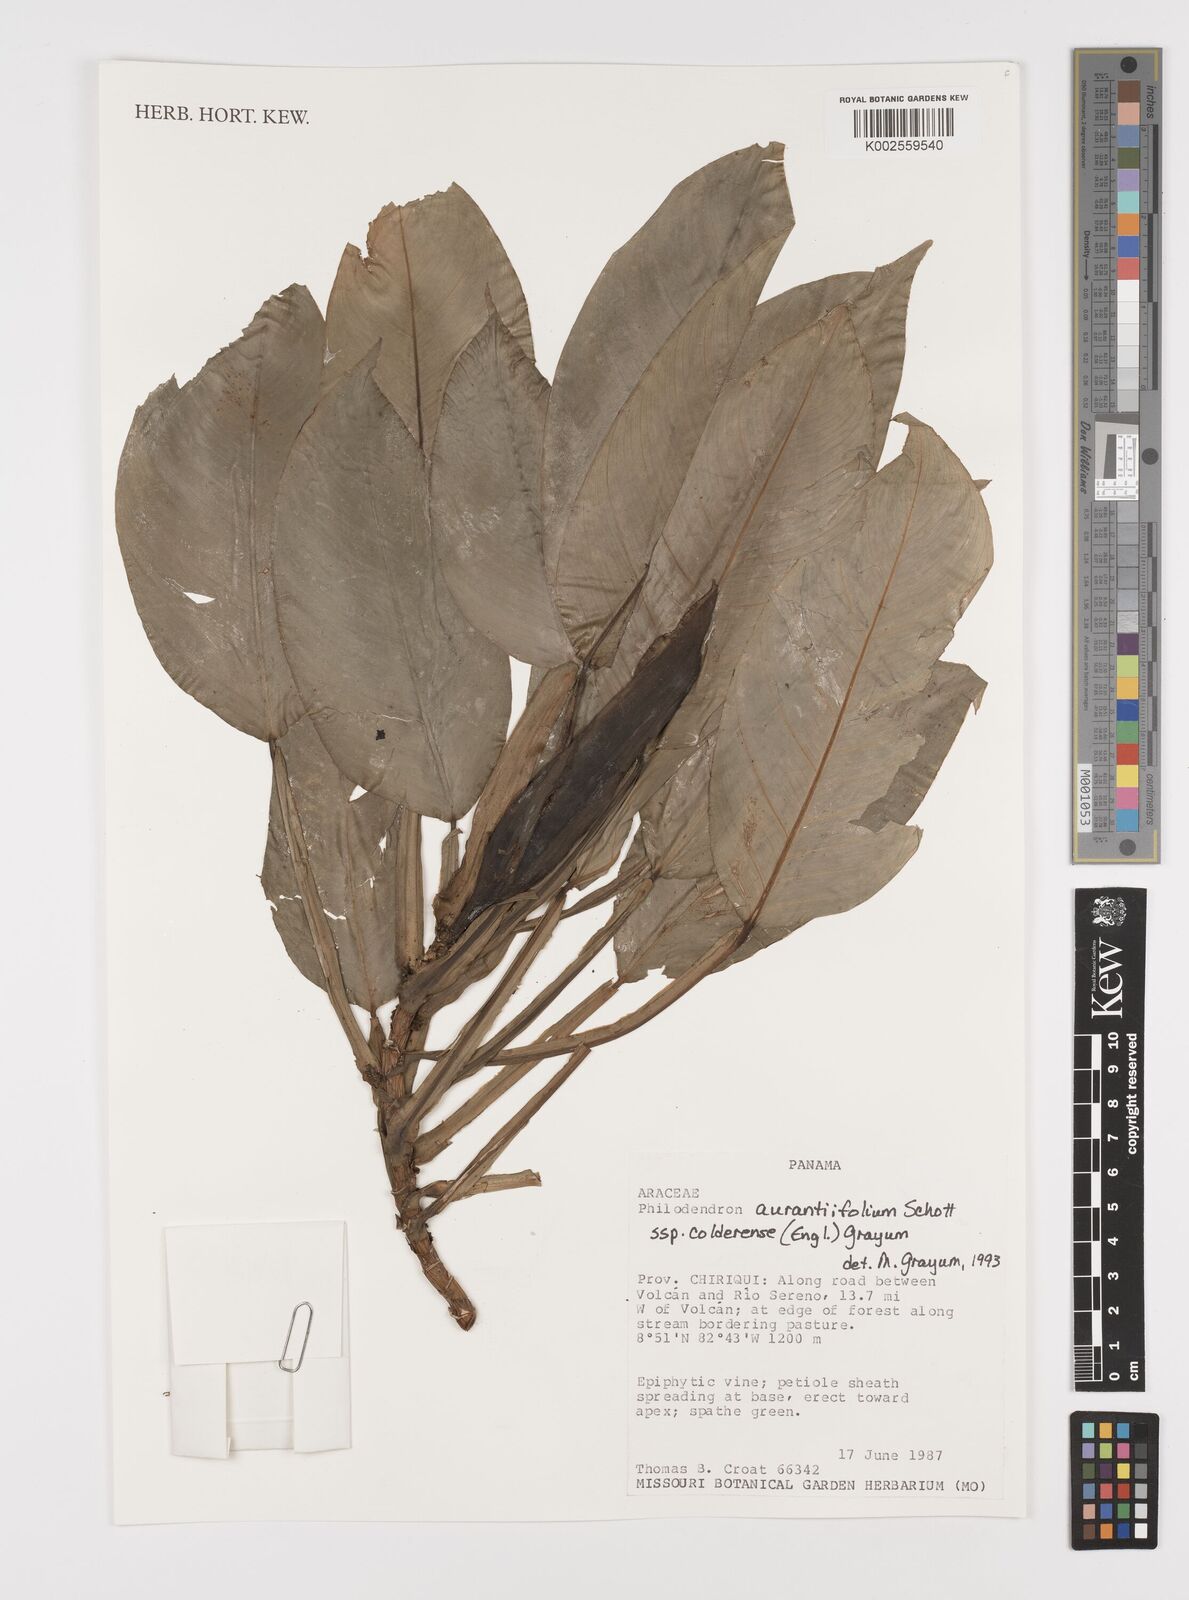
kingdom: Plantae
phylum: Tracheophyta
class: Liliopsida
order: Alismatales
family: Araceae
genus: Philodendron
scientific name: Philodendron aurantiifolium
